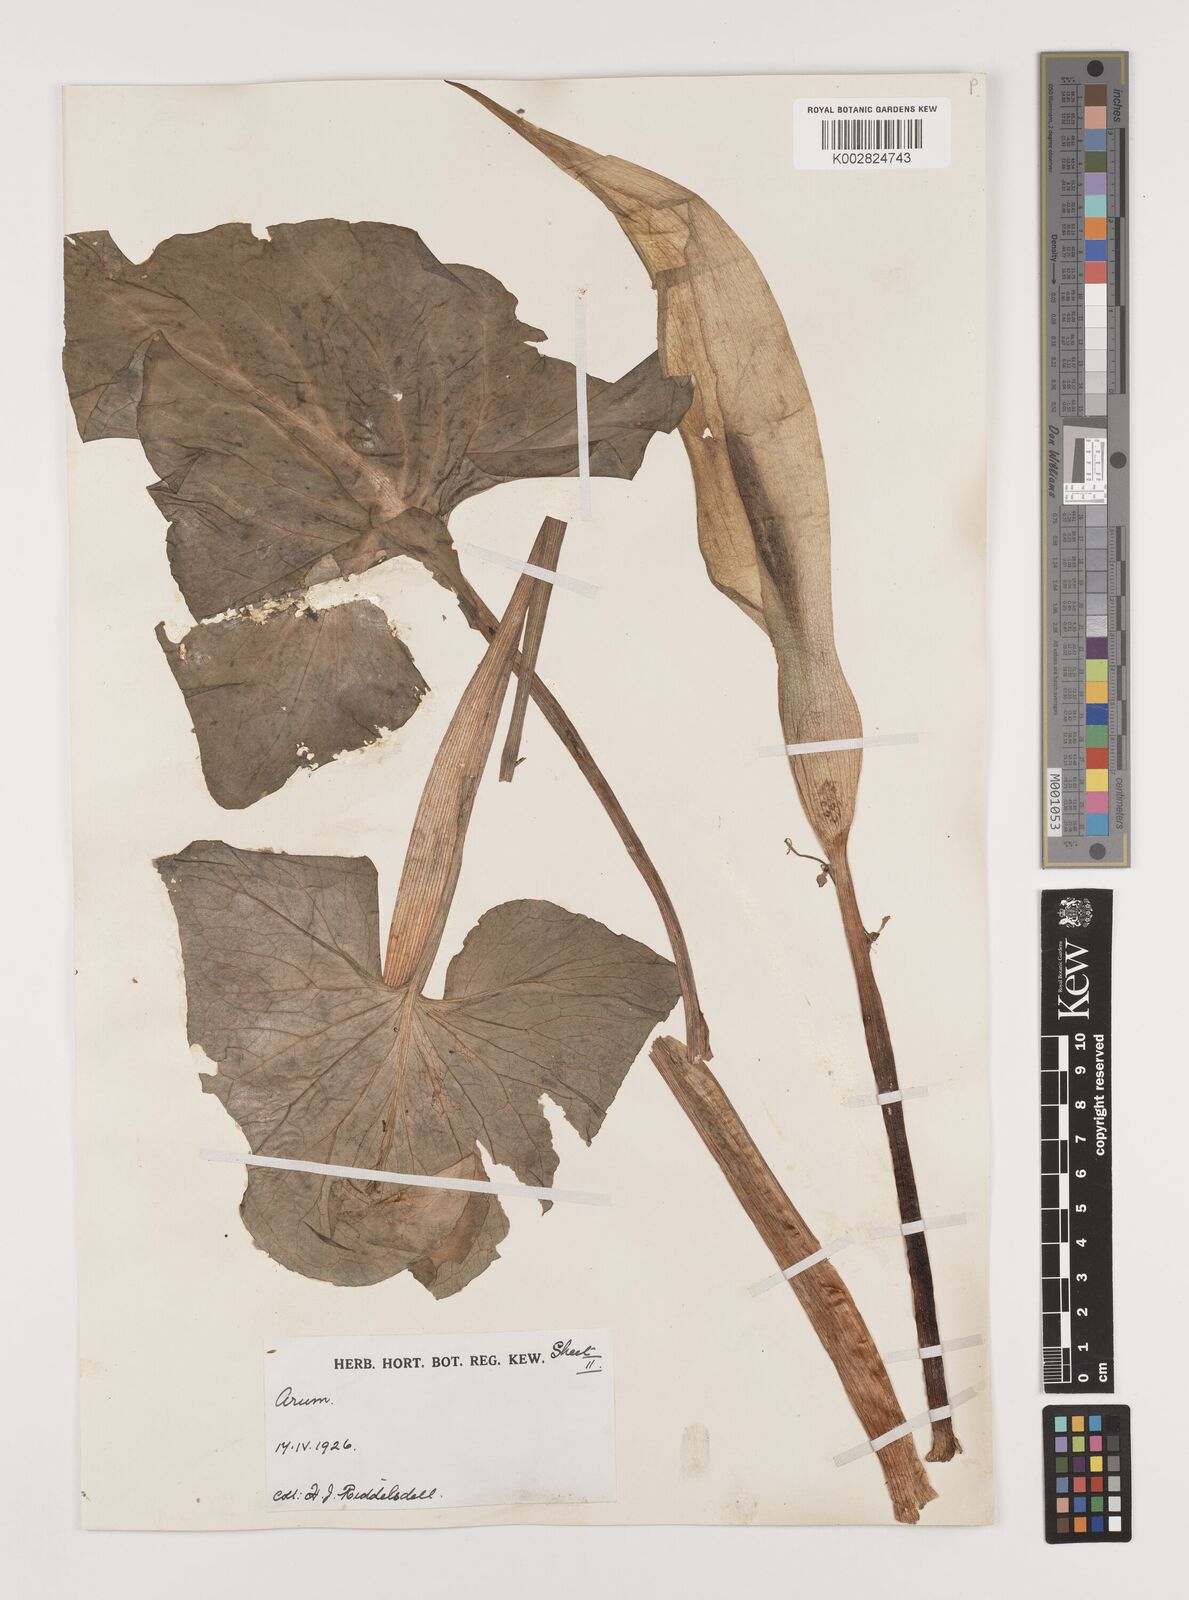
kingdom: Plantae
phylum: Tracheophyta
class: Liliopsida
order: Alismatales
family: Araceae
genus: Arum
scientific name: Arum maculatum
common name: Lords-and-ladies
